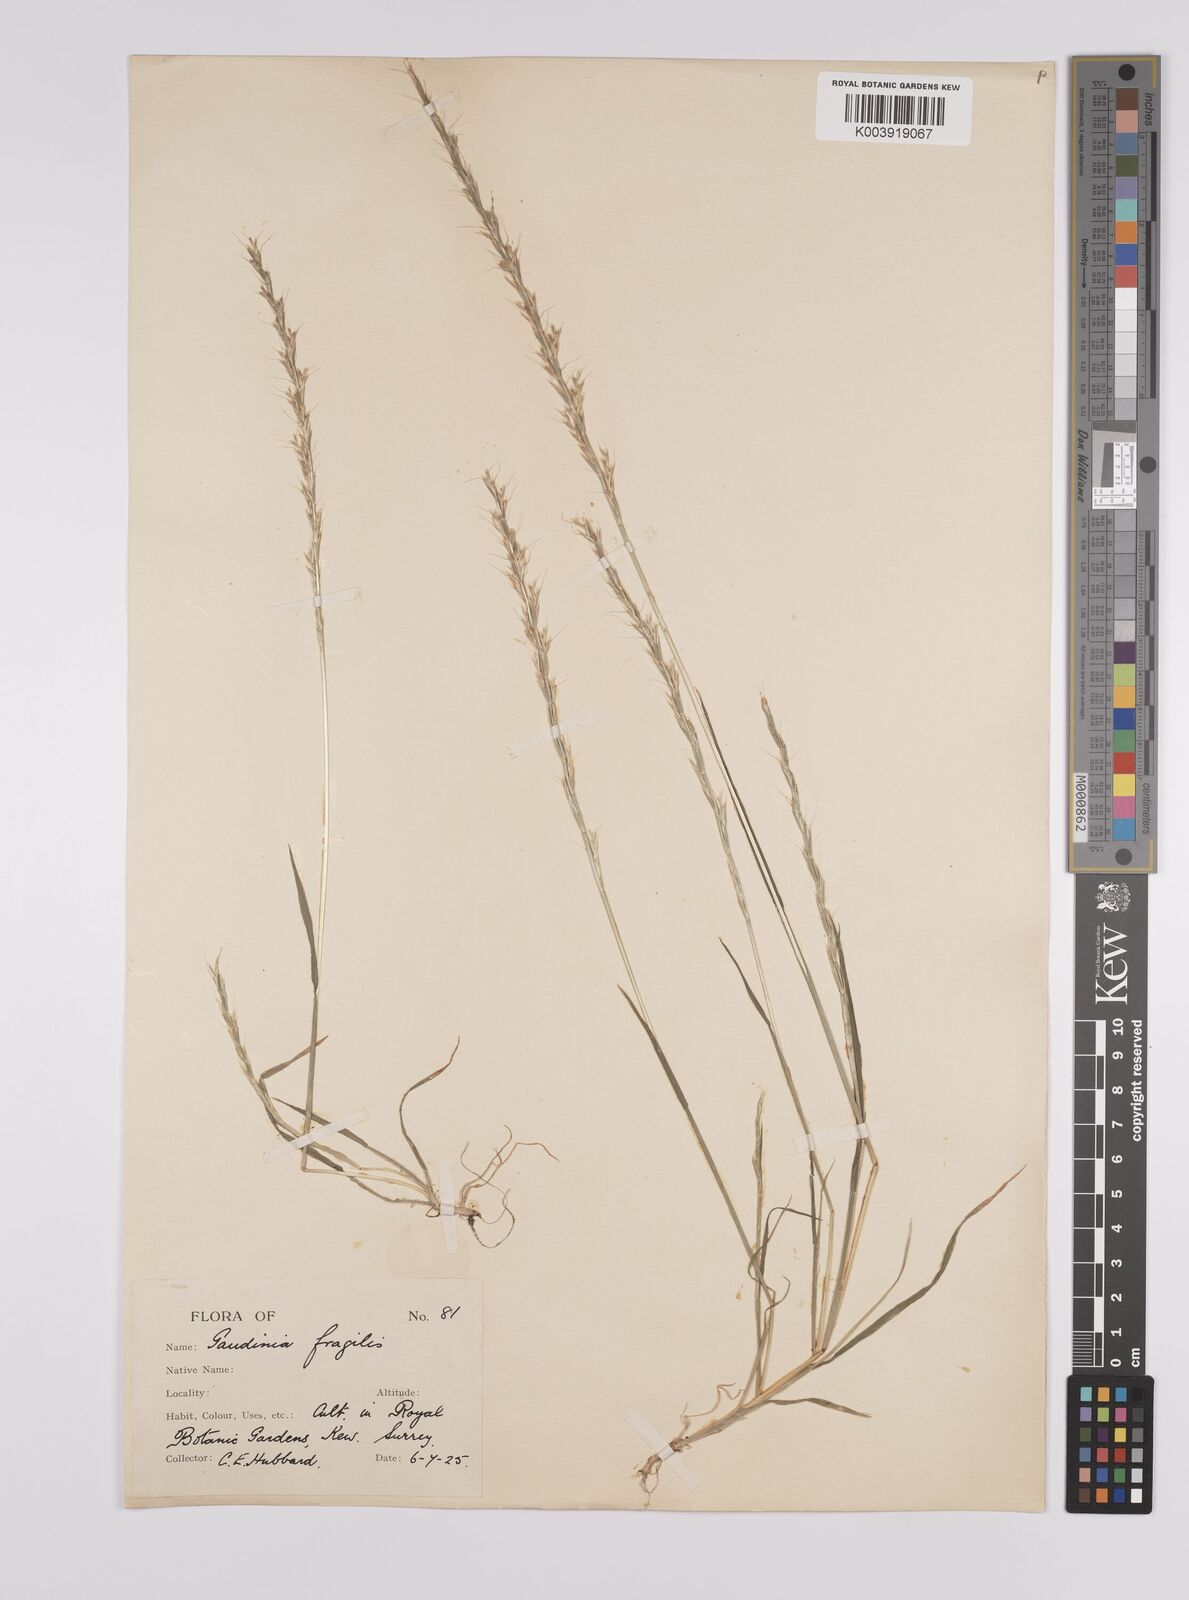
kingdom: Plantae
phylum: Tracheophyta
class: Liliopsida
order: Poales
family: Poaceae
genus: Gaudinia
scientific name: Gaudinia fragilis
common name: French oat-grass
